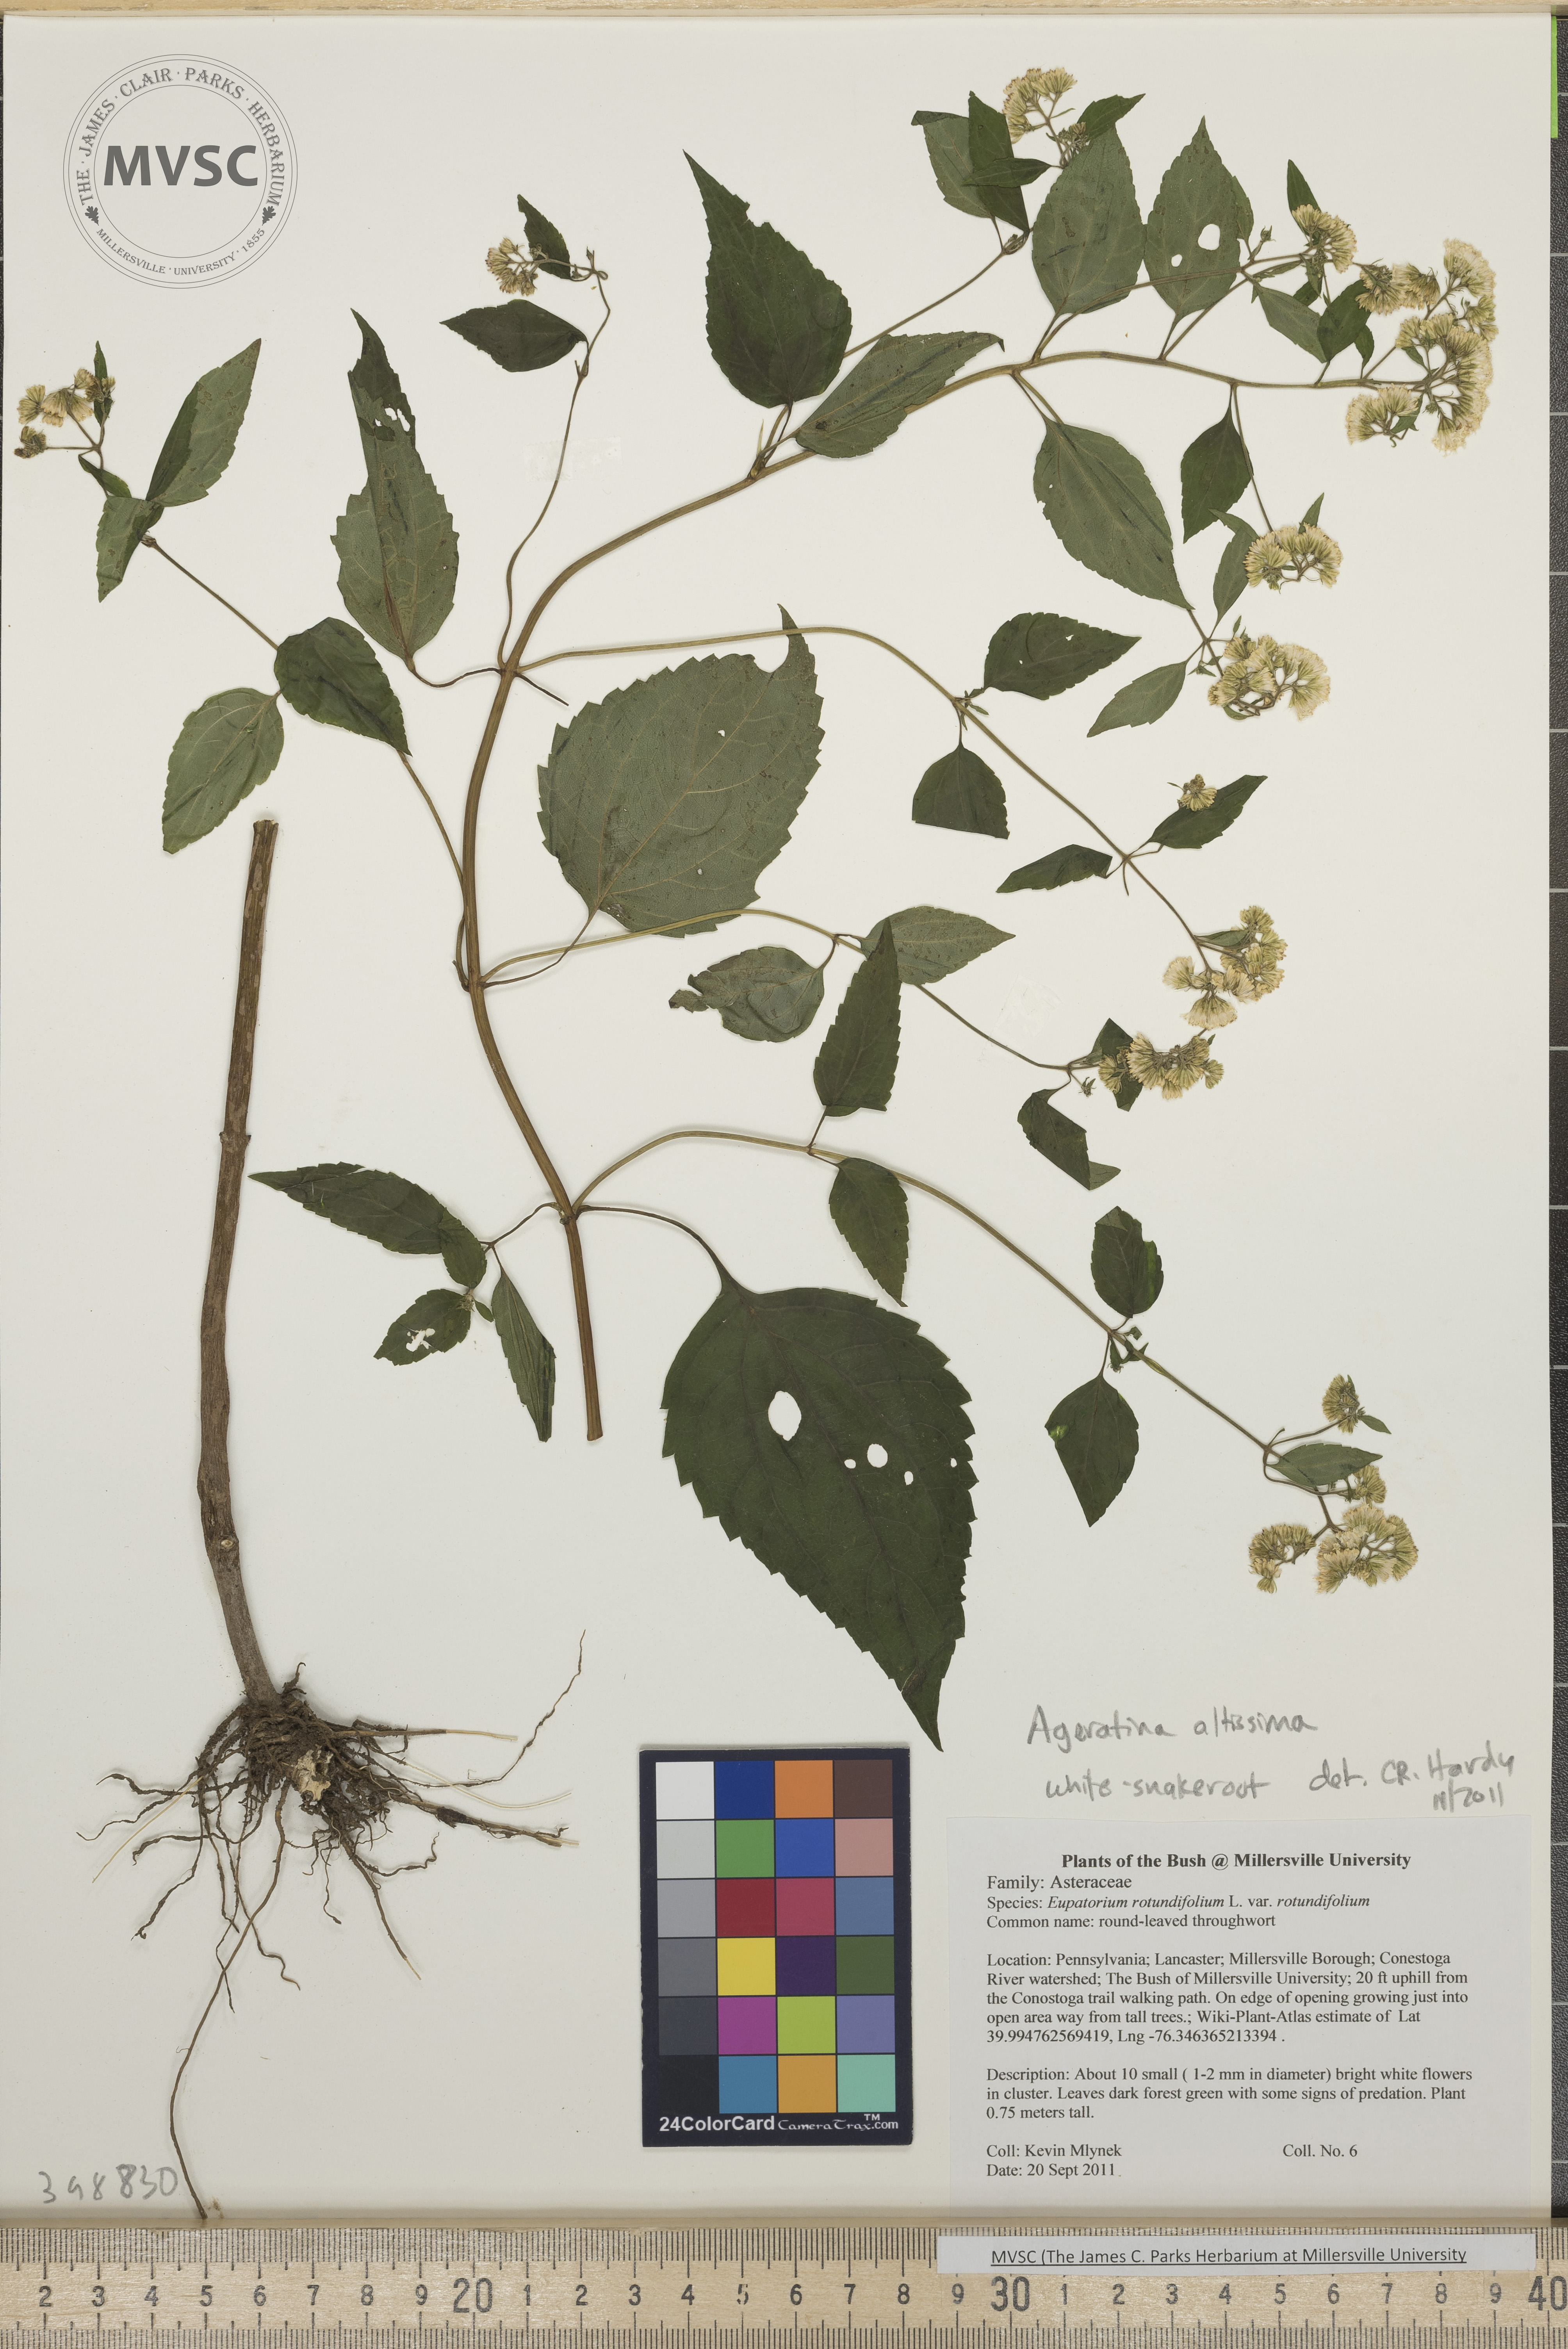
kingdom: Plantae
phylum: Tracheophyta
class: Magnoliopsida
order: Asterales
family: Asteraceae
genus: Ageratina
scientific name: Ageratina altissima
